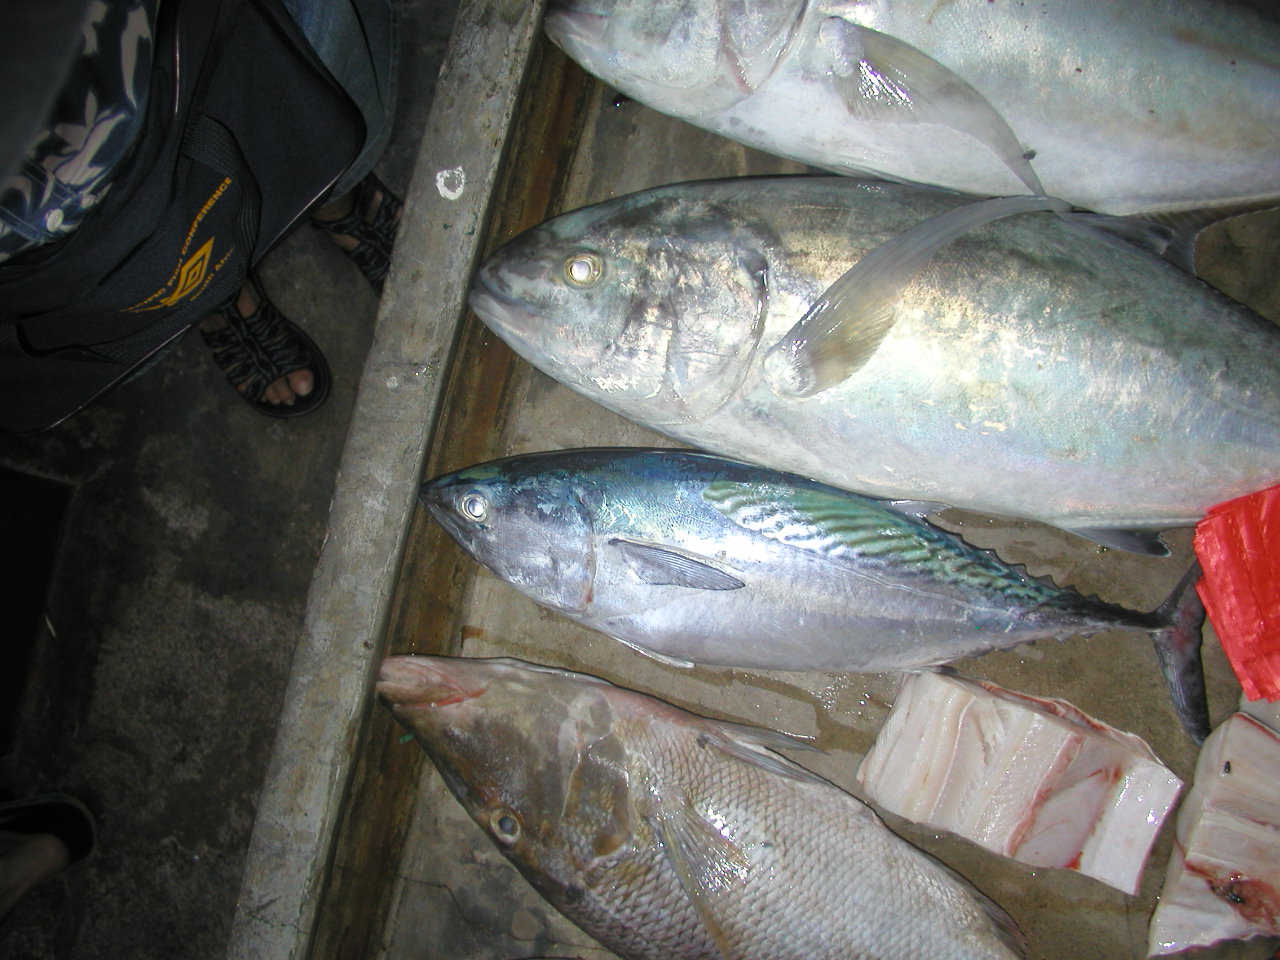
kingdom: Animalia
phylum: Chordata
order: Perciformes
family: Scombridae
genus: Euthynnus
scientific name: Euthynnus affinis
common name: Mackerel tuna
